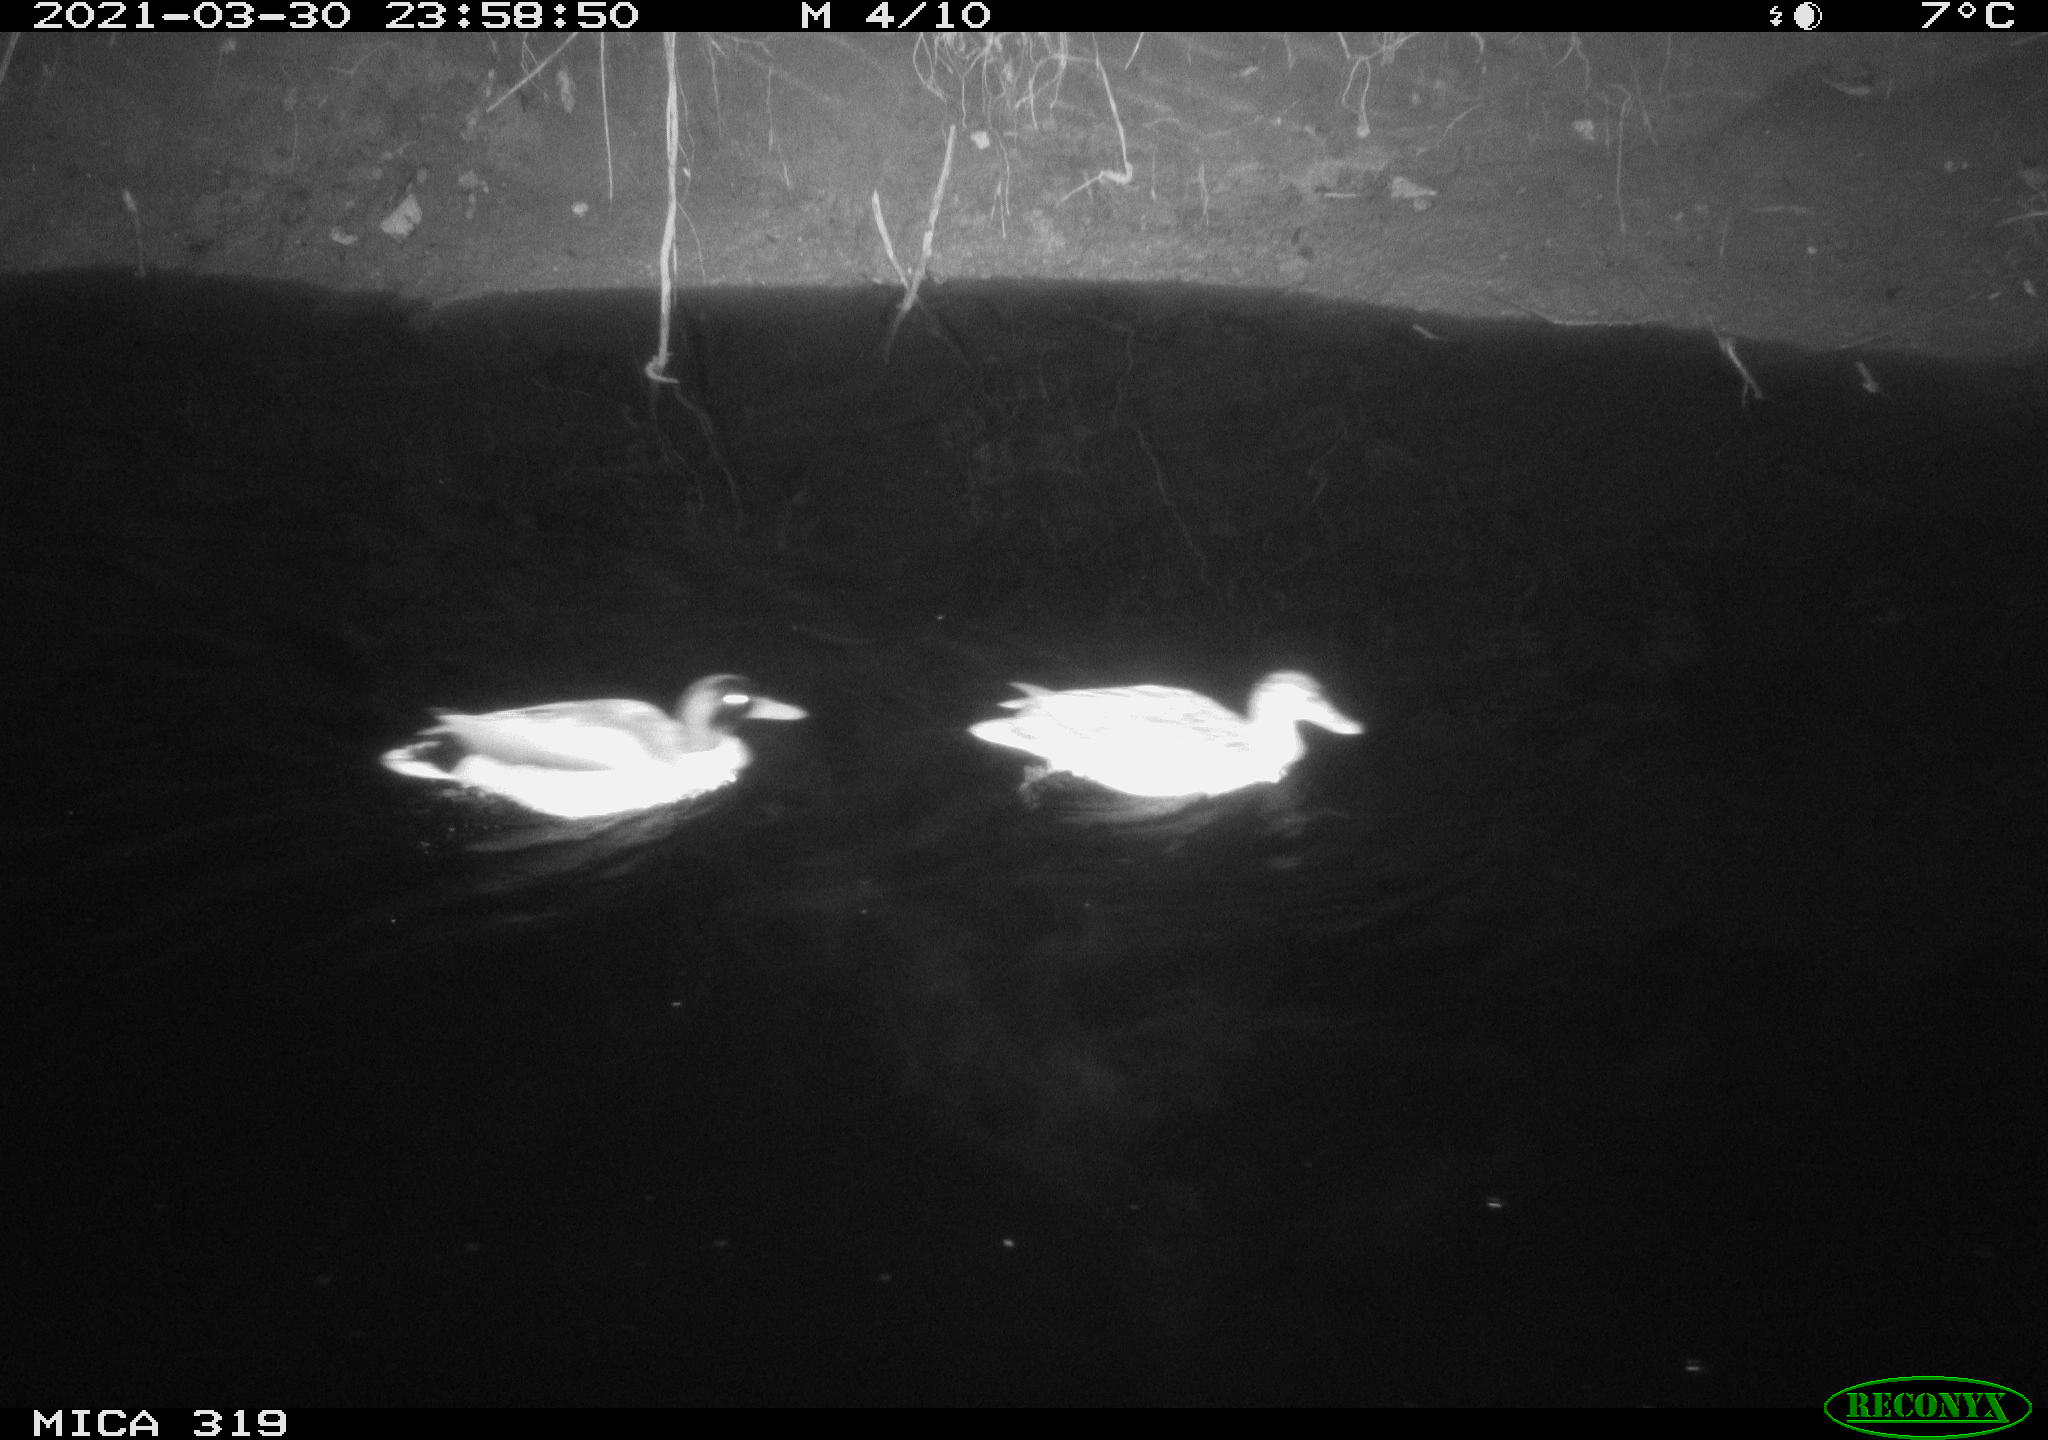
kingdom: Animalia
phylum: Chordata
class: Aves
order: Anseriformes
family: Anatidae
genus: Anas
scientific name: Anas platyrhynchos
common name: Mallard
